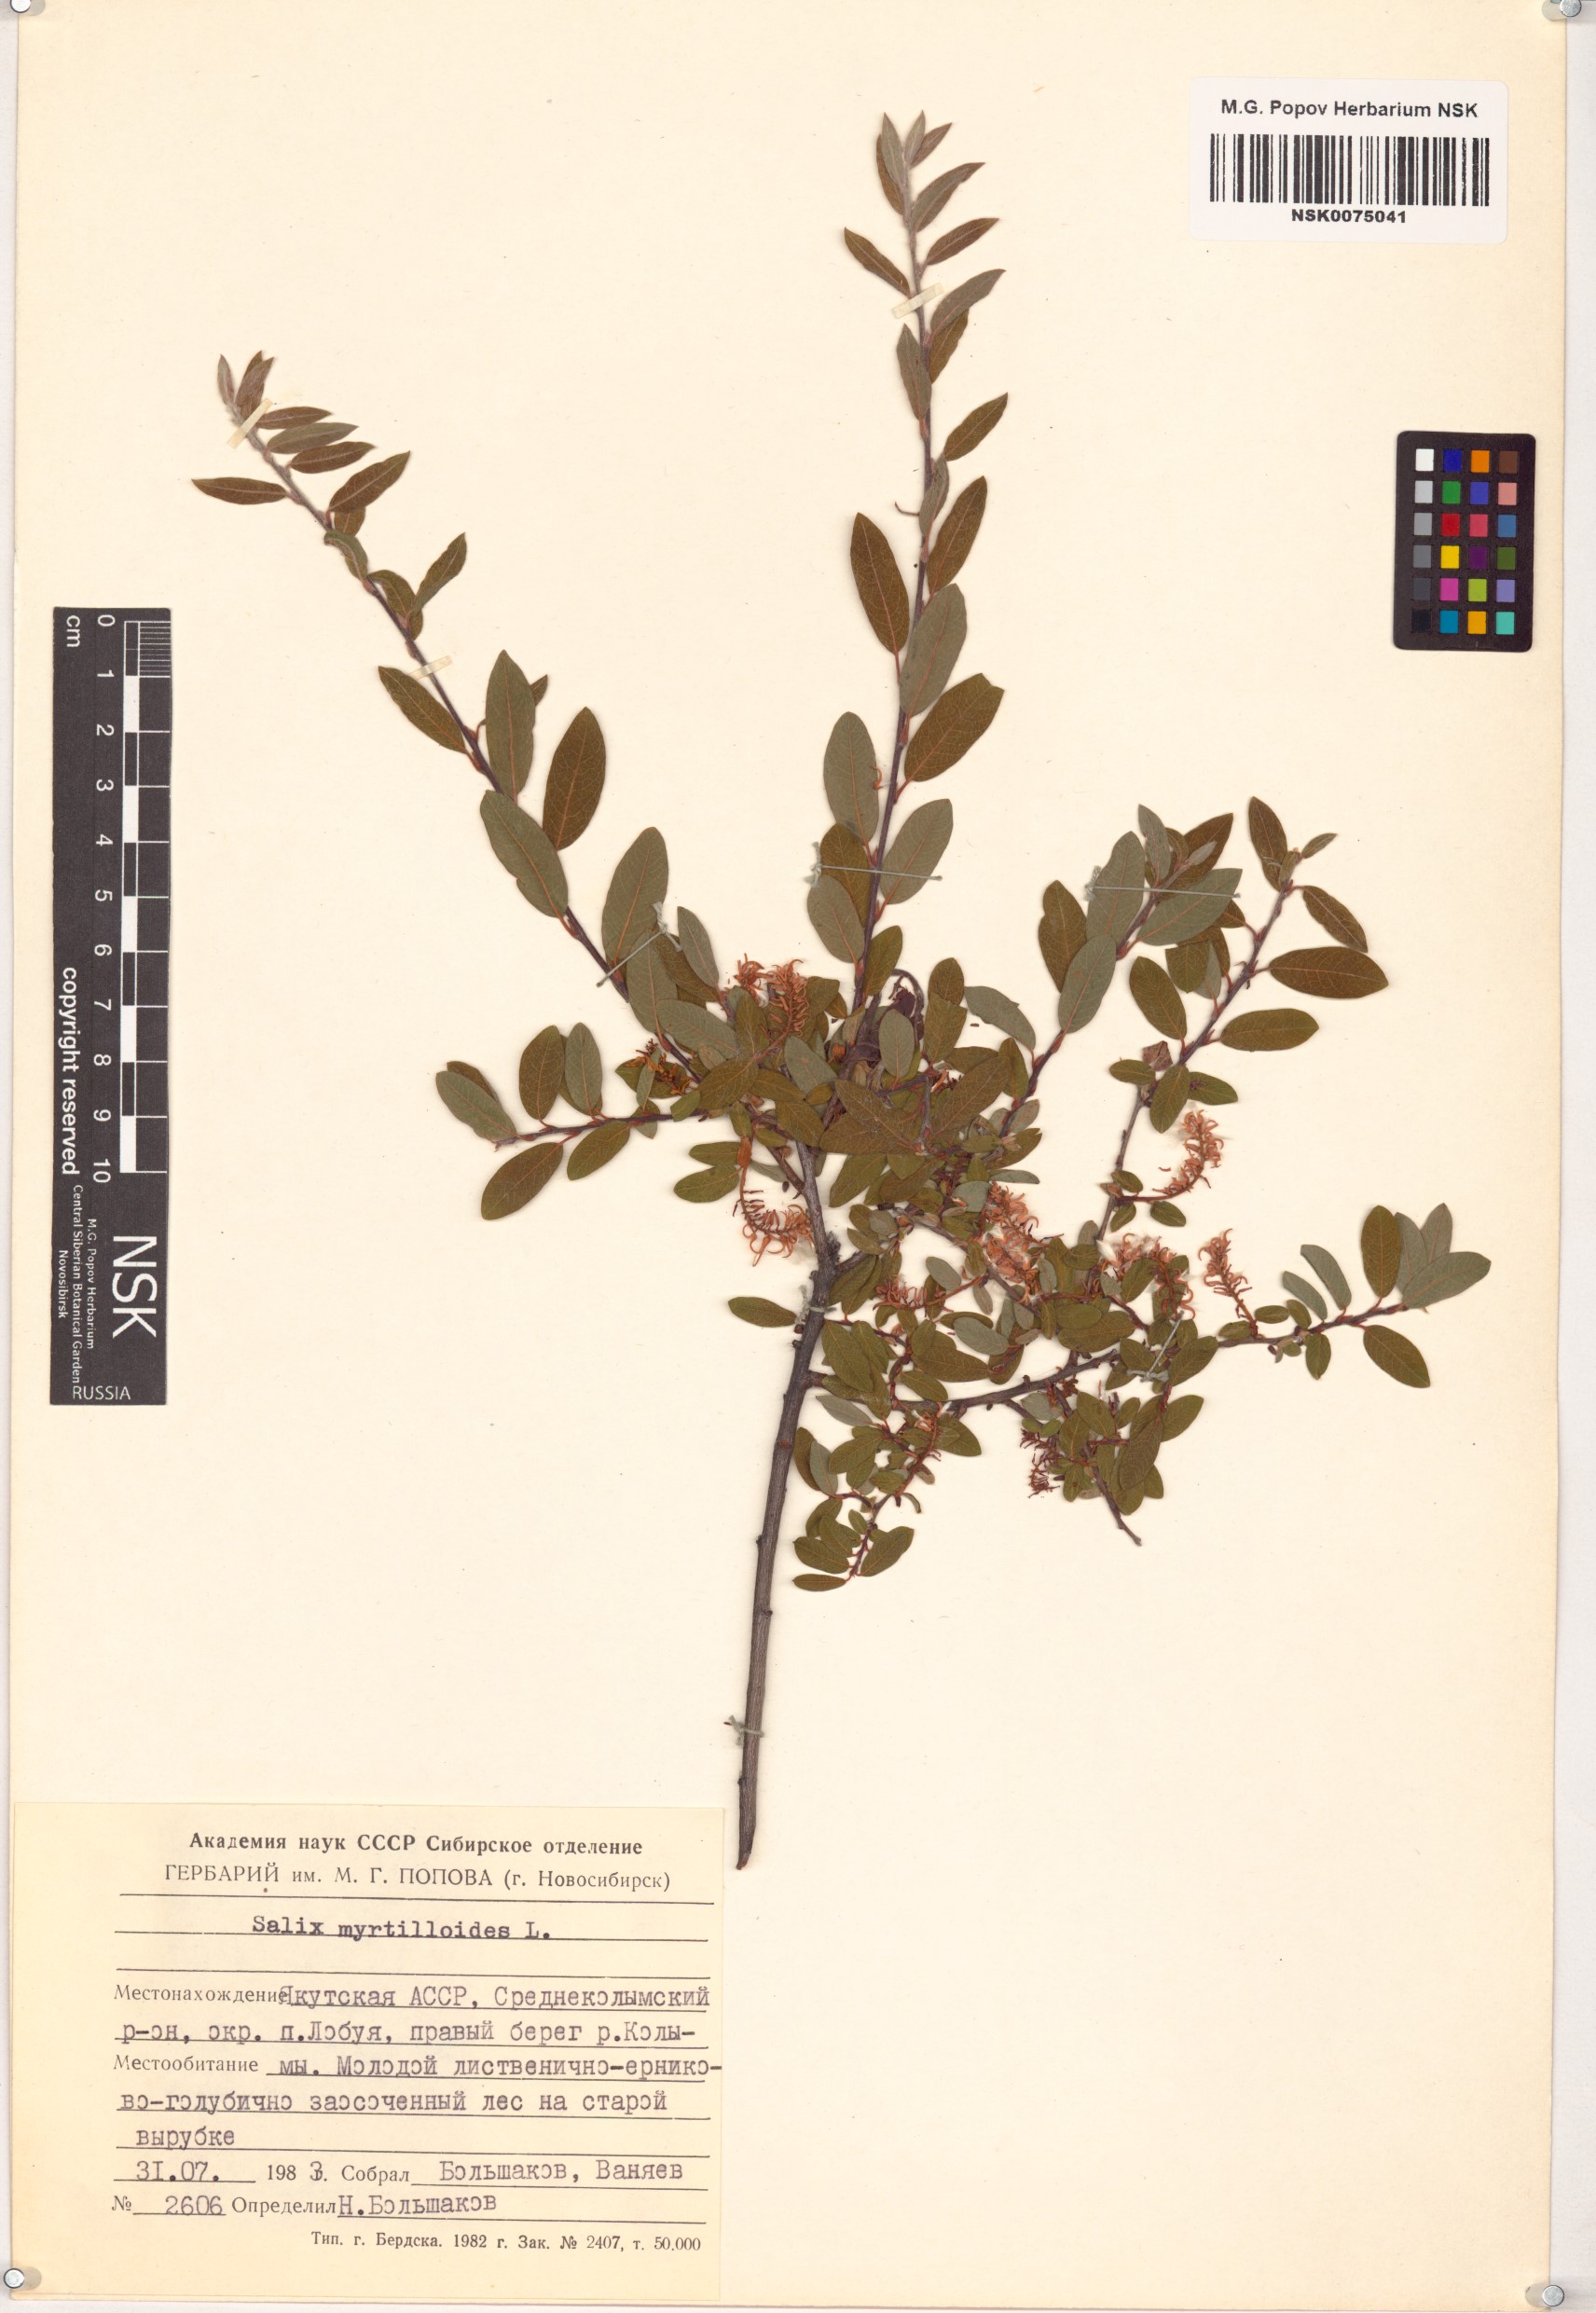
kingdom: Plantae
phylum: Tracheophyta
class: Magnoliopsida
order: Malpighiales
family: Salicaceae
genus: Salix
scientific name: Salix myrtilloides
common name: Myrtle-leaved willow
